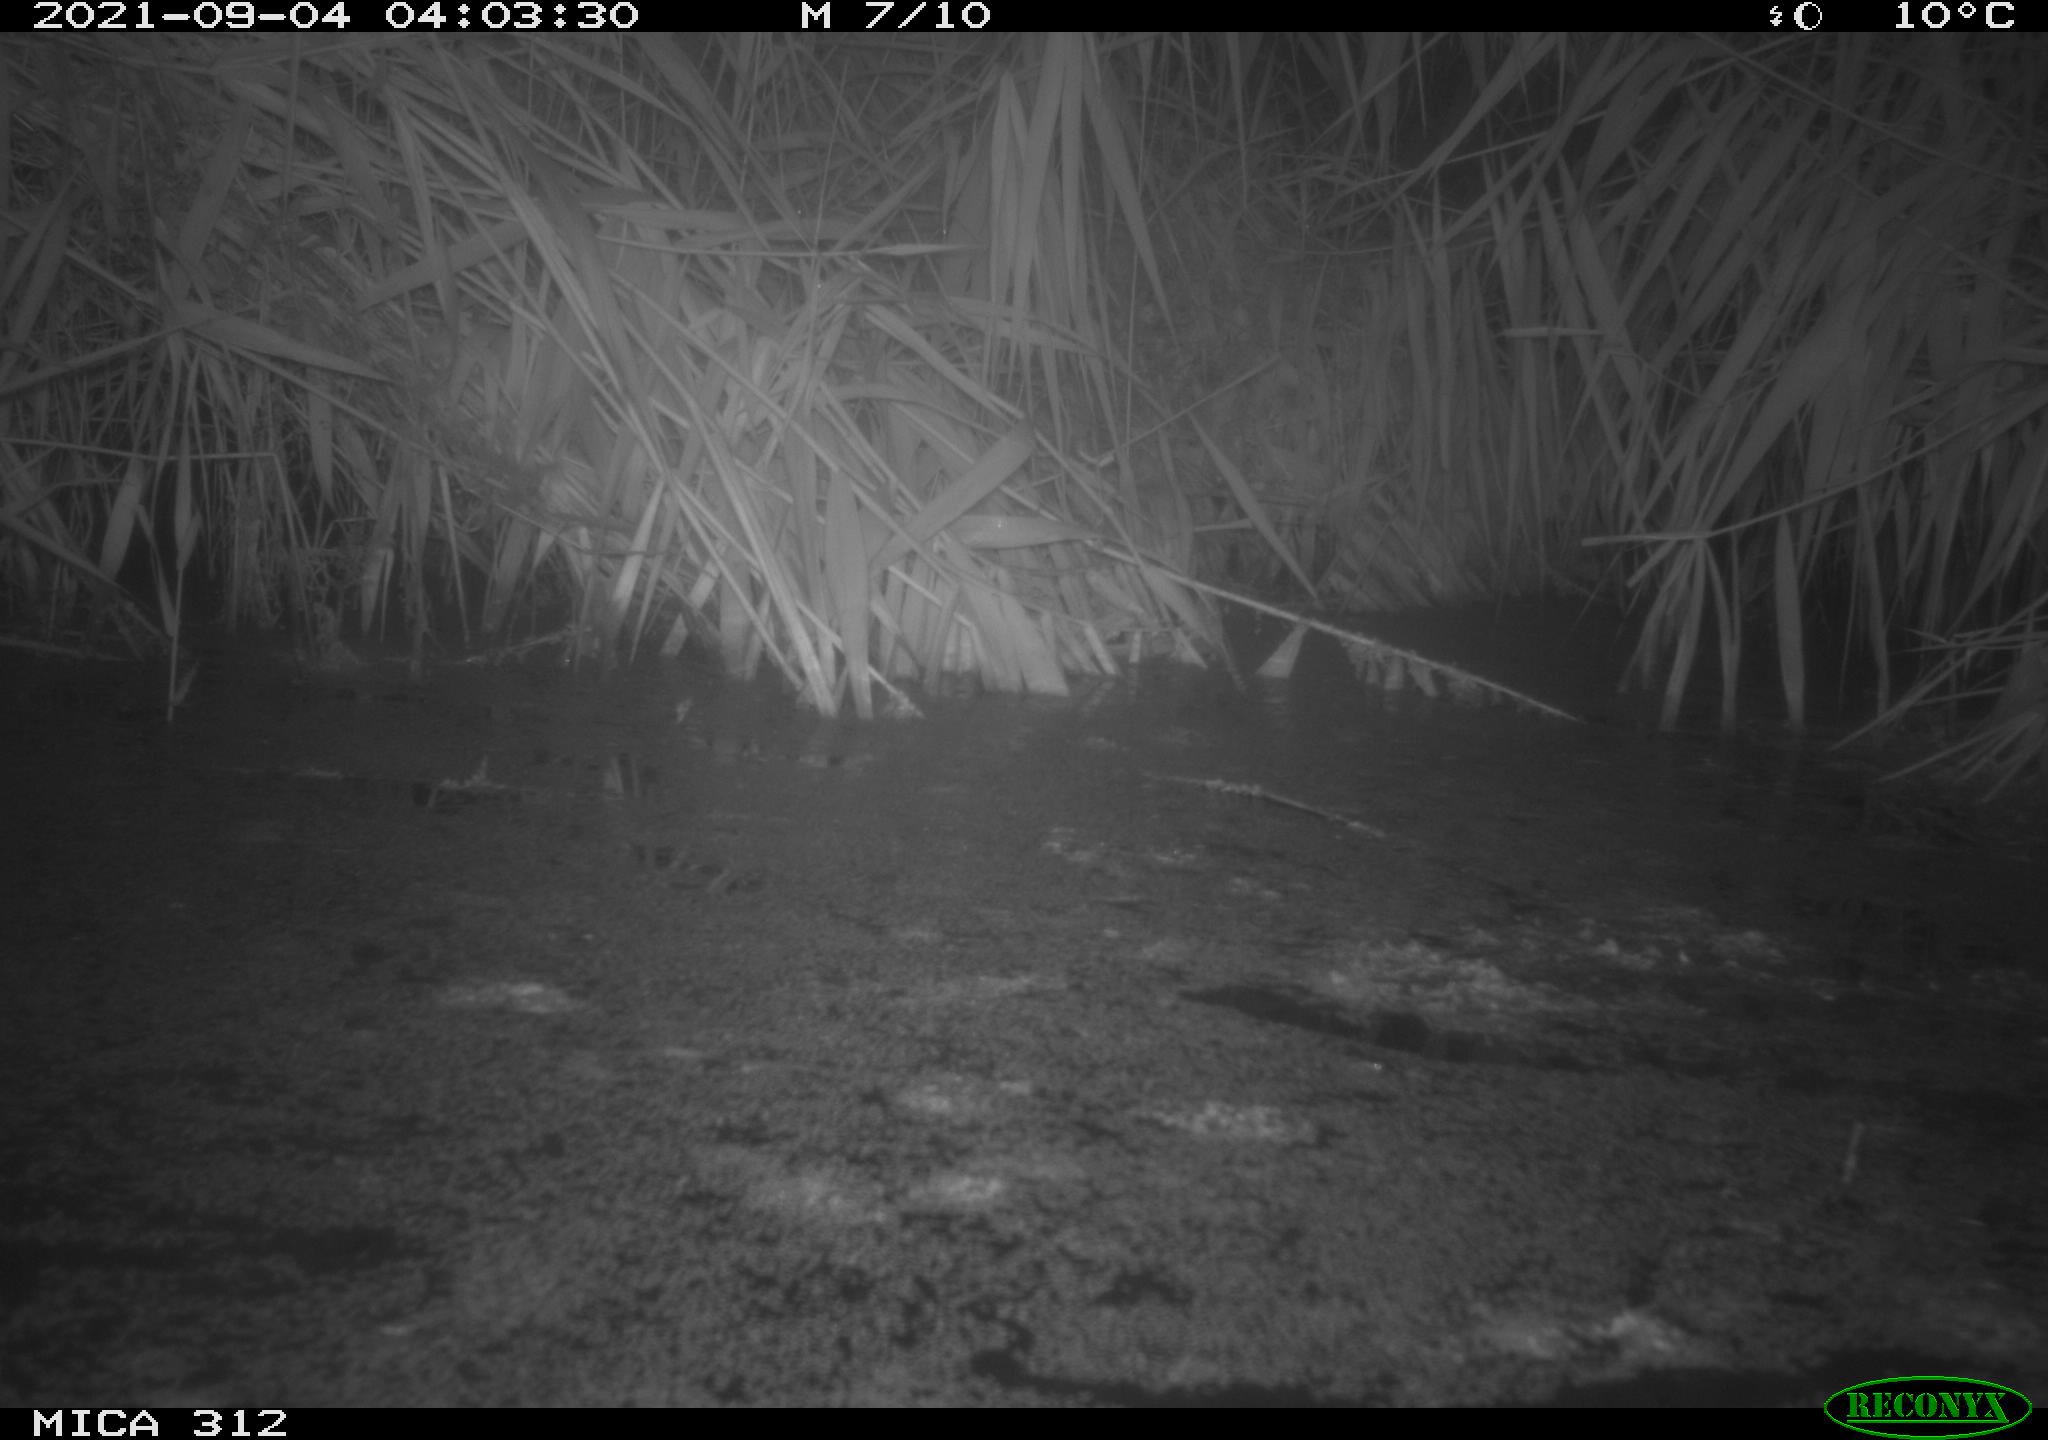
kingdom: Animalia
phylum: Chordata
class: Mammalia
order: Rodentia
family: Muridae
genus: Rattus
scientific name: Rattus norvegicus
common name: Brown rat
